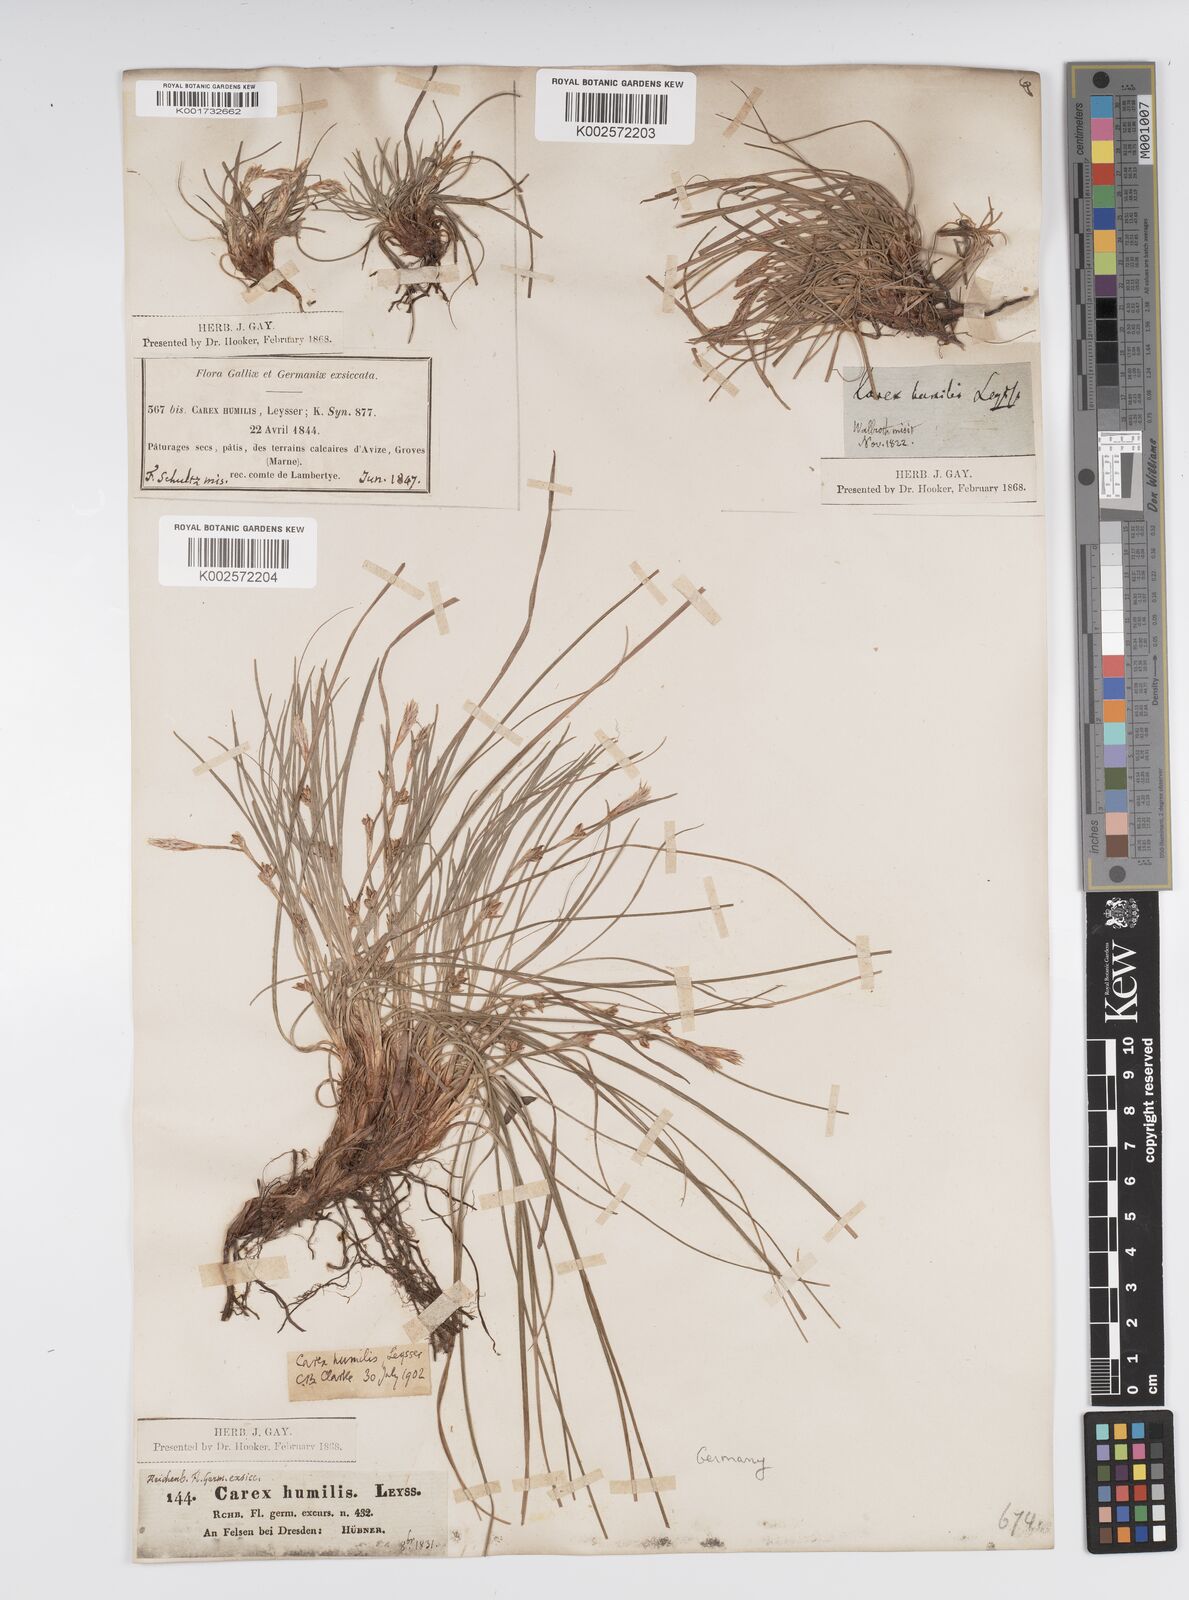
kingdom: Plantae
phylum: Tracheophyta
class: Liliopsida
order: Poales
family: Cyperaceae
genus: Carex
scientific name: Carex humilis
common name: Dwarf sedge
